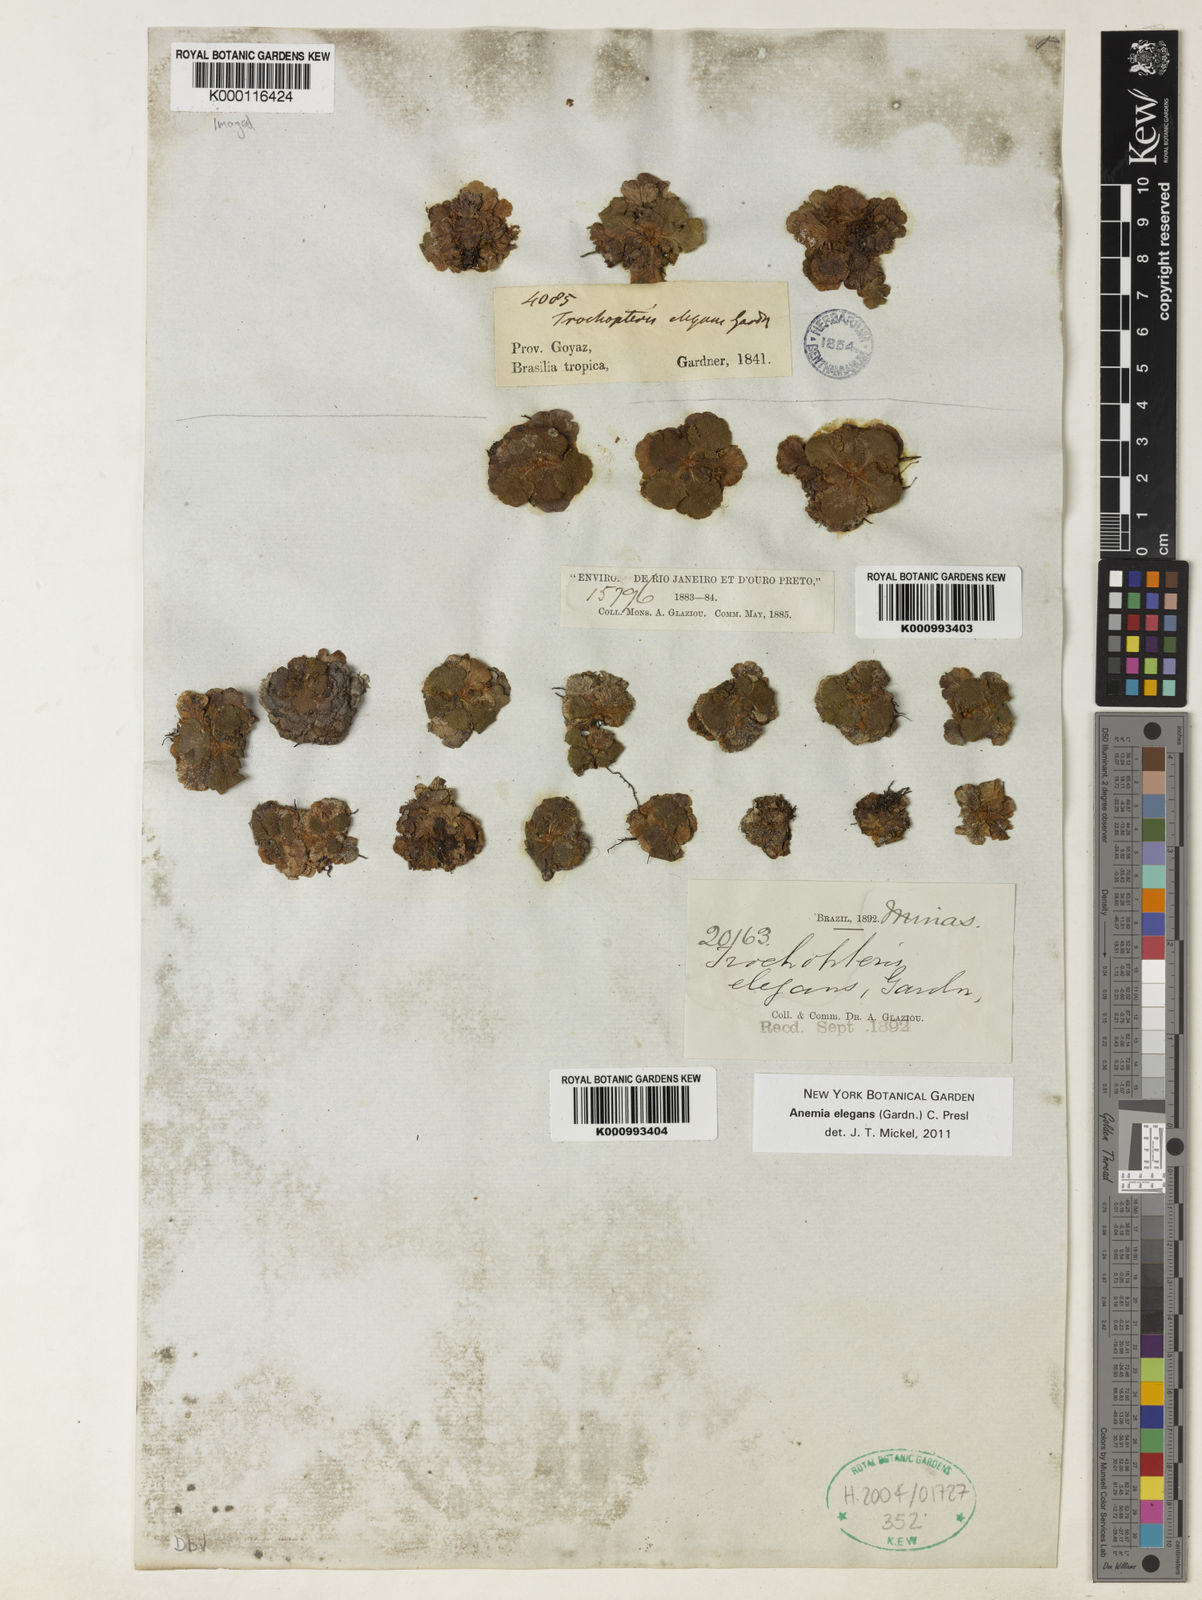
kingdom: Plantae
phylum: Tracheophyta
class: Polypodiopsida
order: Schizaeales
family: Anemiaceae
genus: Anemia
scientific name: Anemia elegans
